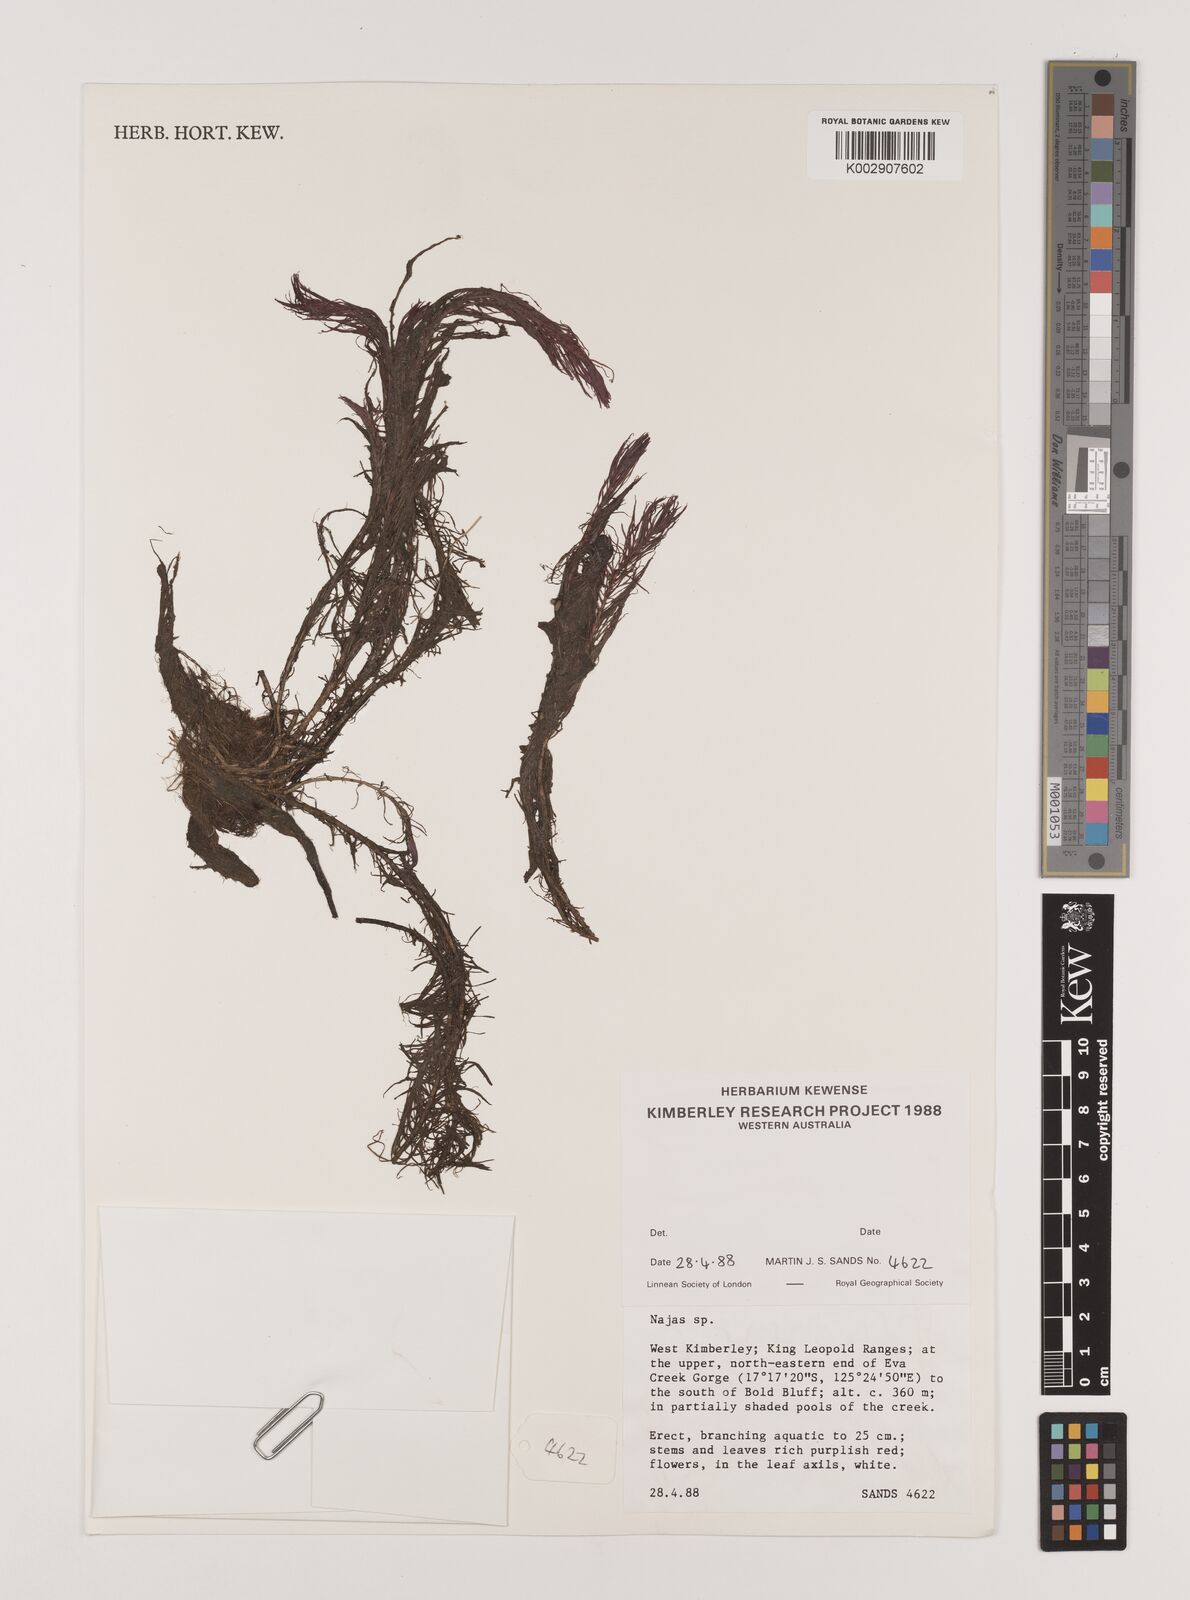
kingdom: Plantae
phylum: Tracheophyta
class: Liliopsida
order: Alismatales
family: Hydrocharitaceae
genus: Najas
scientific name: Najas
